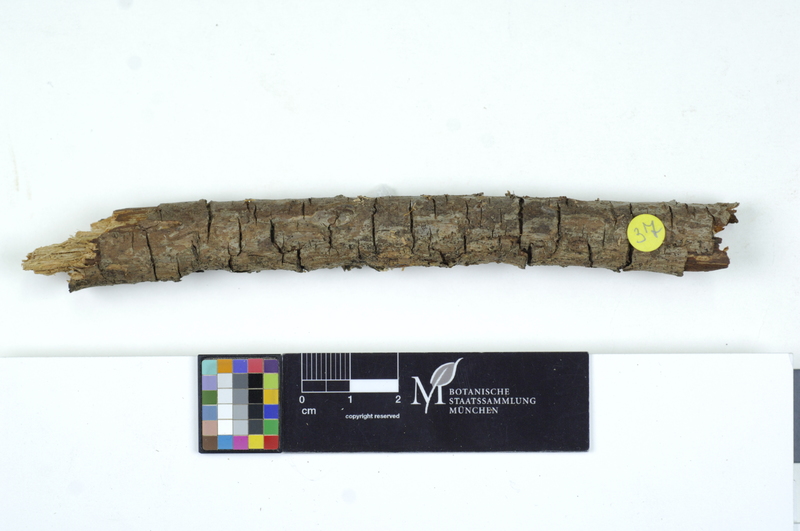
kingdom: Plantae
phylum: Tracheophyta
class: Pinopsida
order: Pinales
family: Pinaceae
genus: Pinus
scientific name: Pinus
